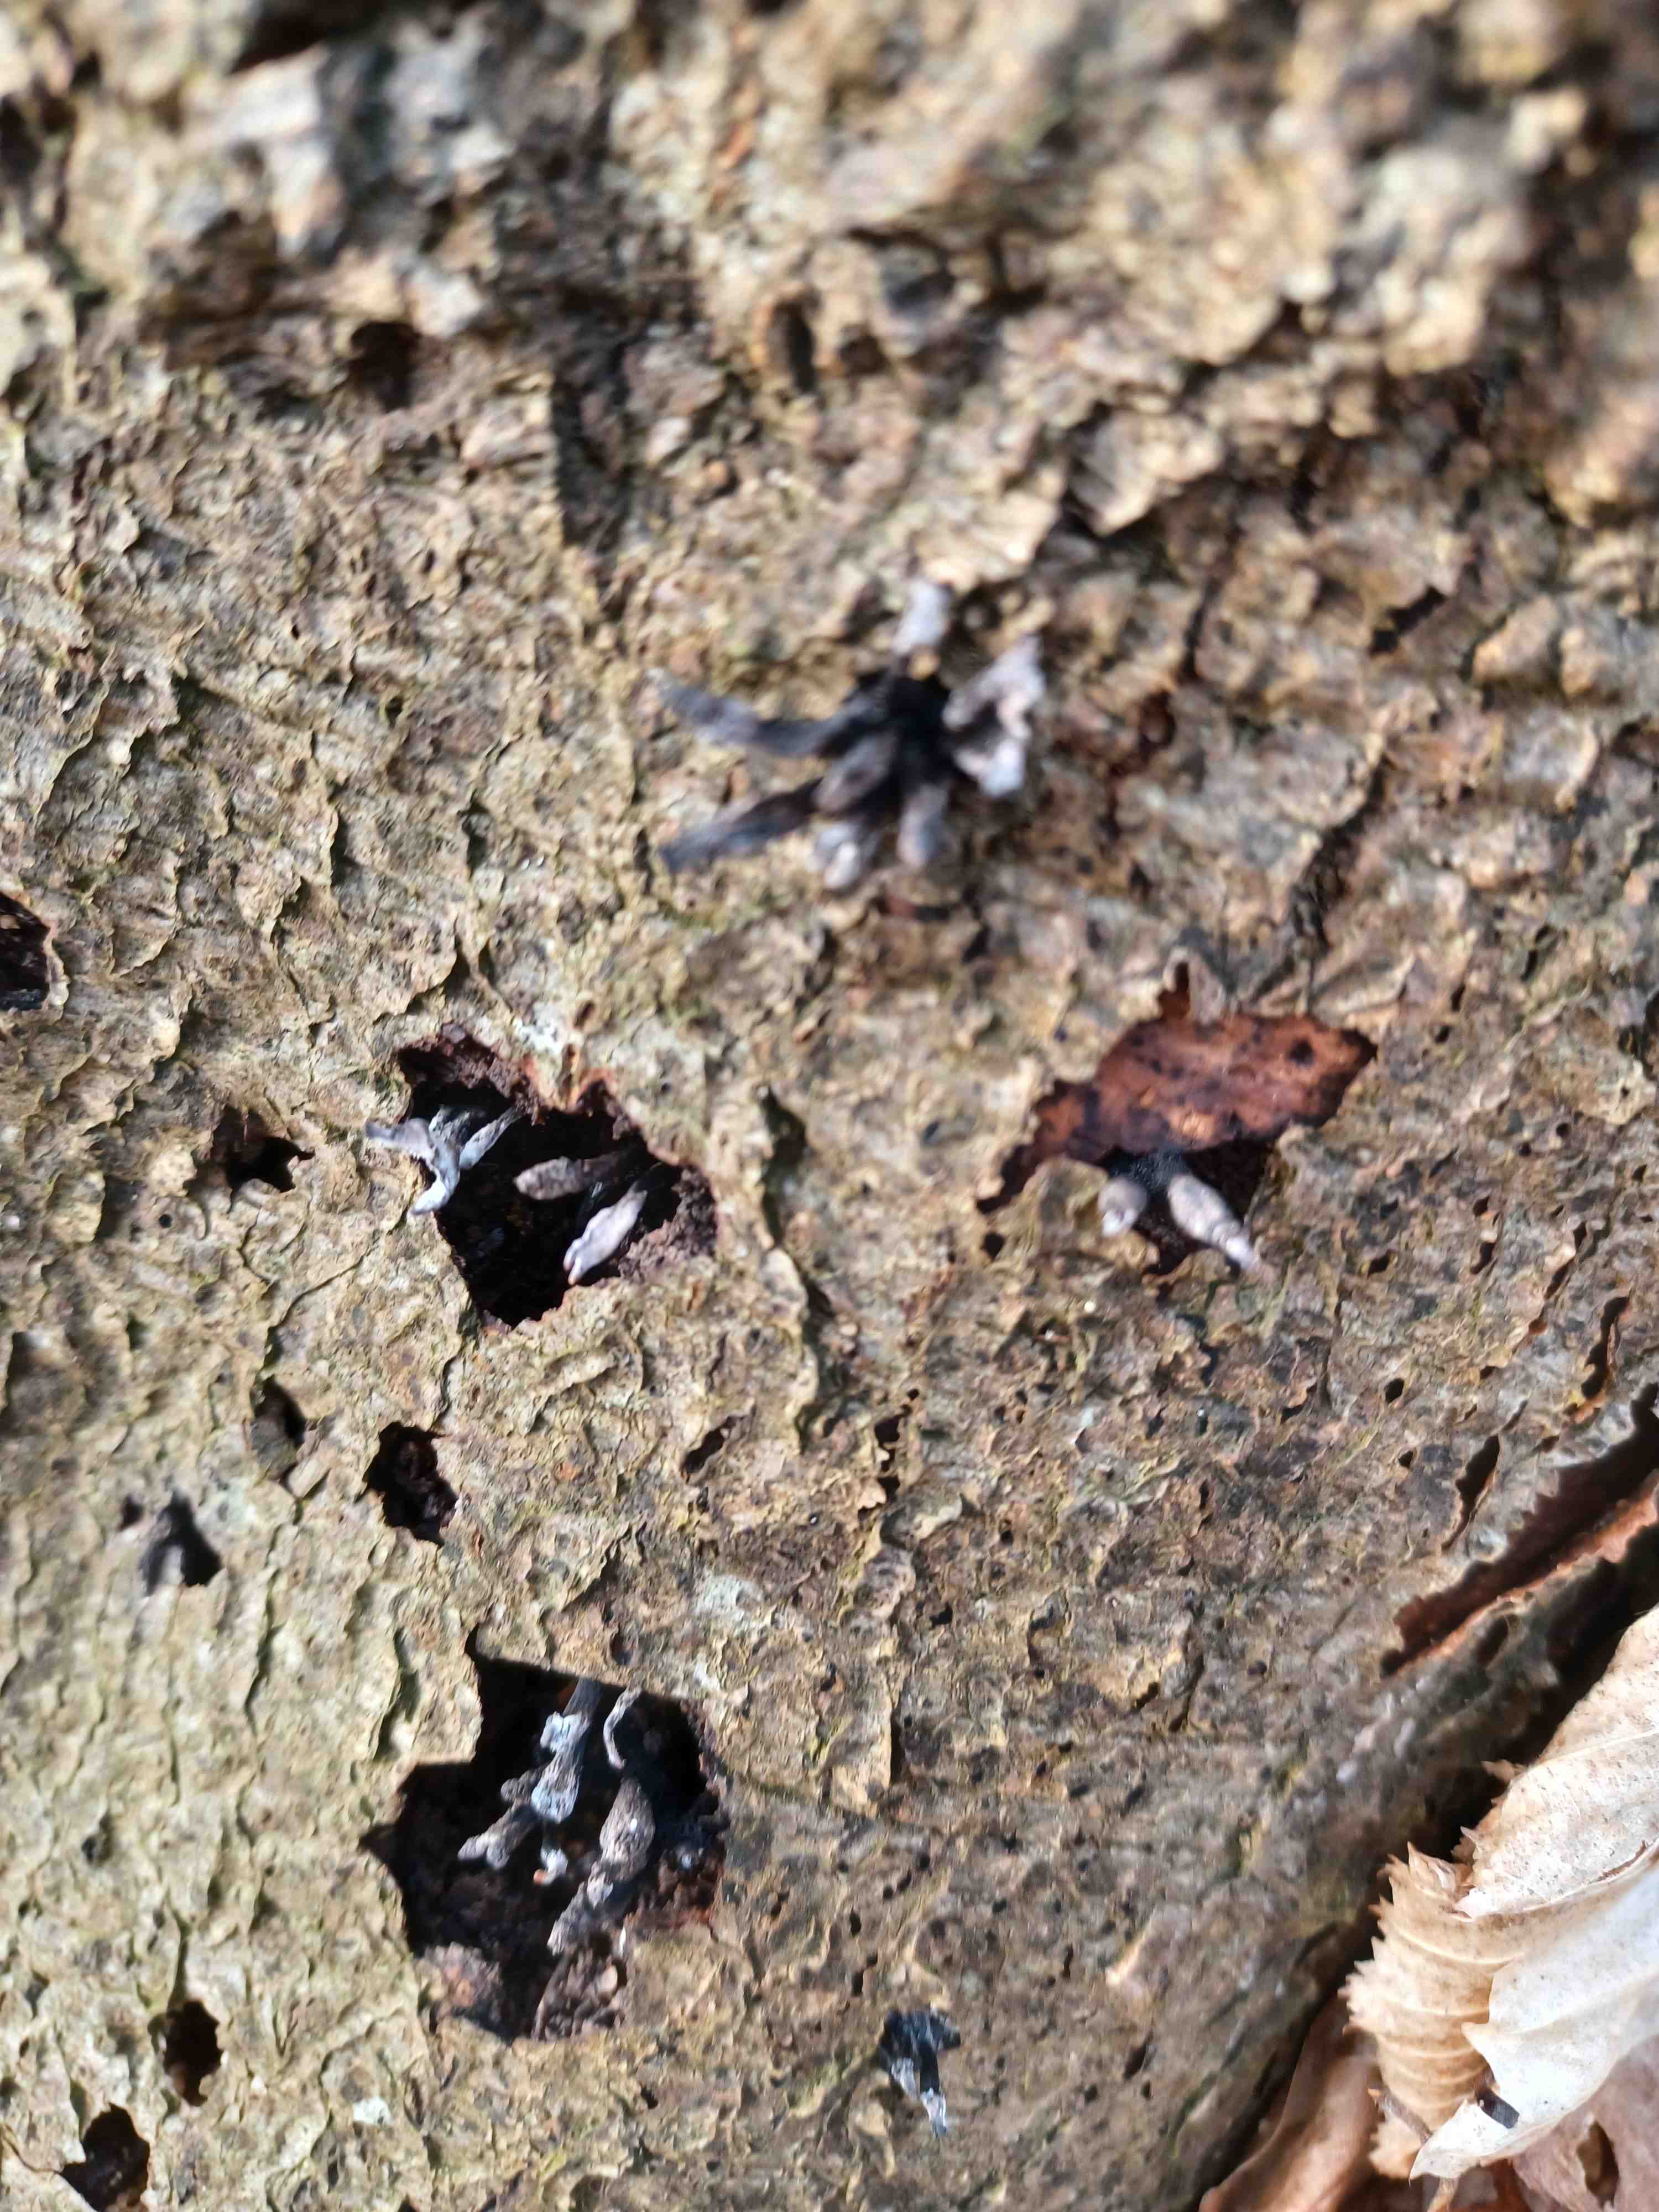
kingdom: Fungi
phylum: Ascomycota
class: Sordariomycetes
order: Xylariales
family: Xylariaceae
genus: Xylaria
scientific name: Xylaria hypoxylon
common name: grenet stødsvamp
